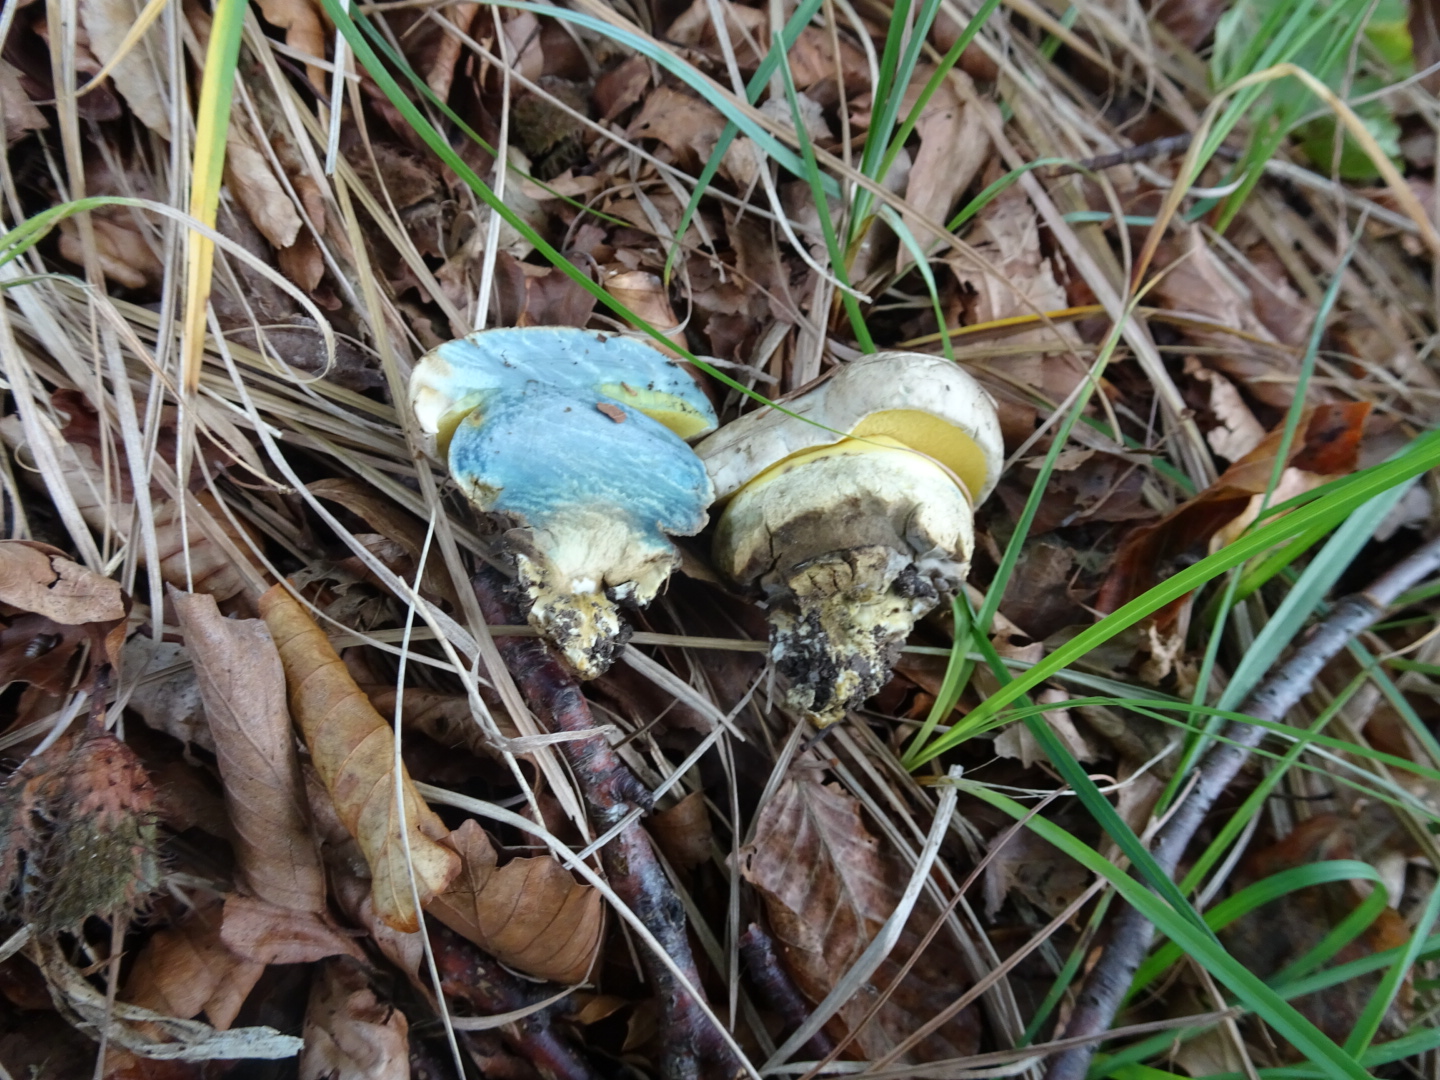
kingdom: Fungi
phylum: Basidiomycota
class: Agaricomycetes
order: Boletales
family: Boletaceae
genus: Caloboletus
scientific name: Caloboletus radicans
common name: rod-rørhat
